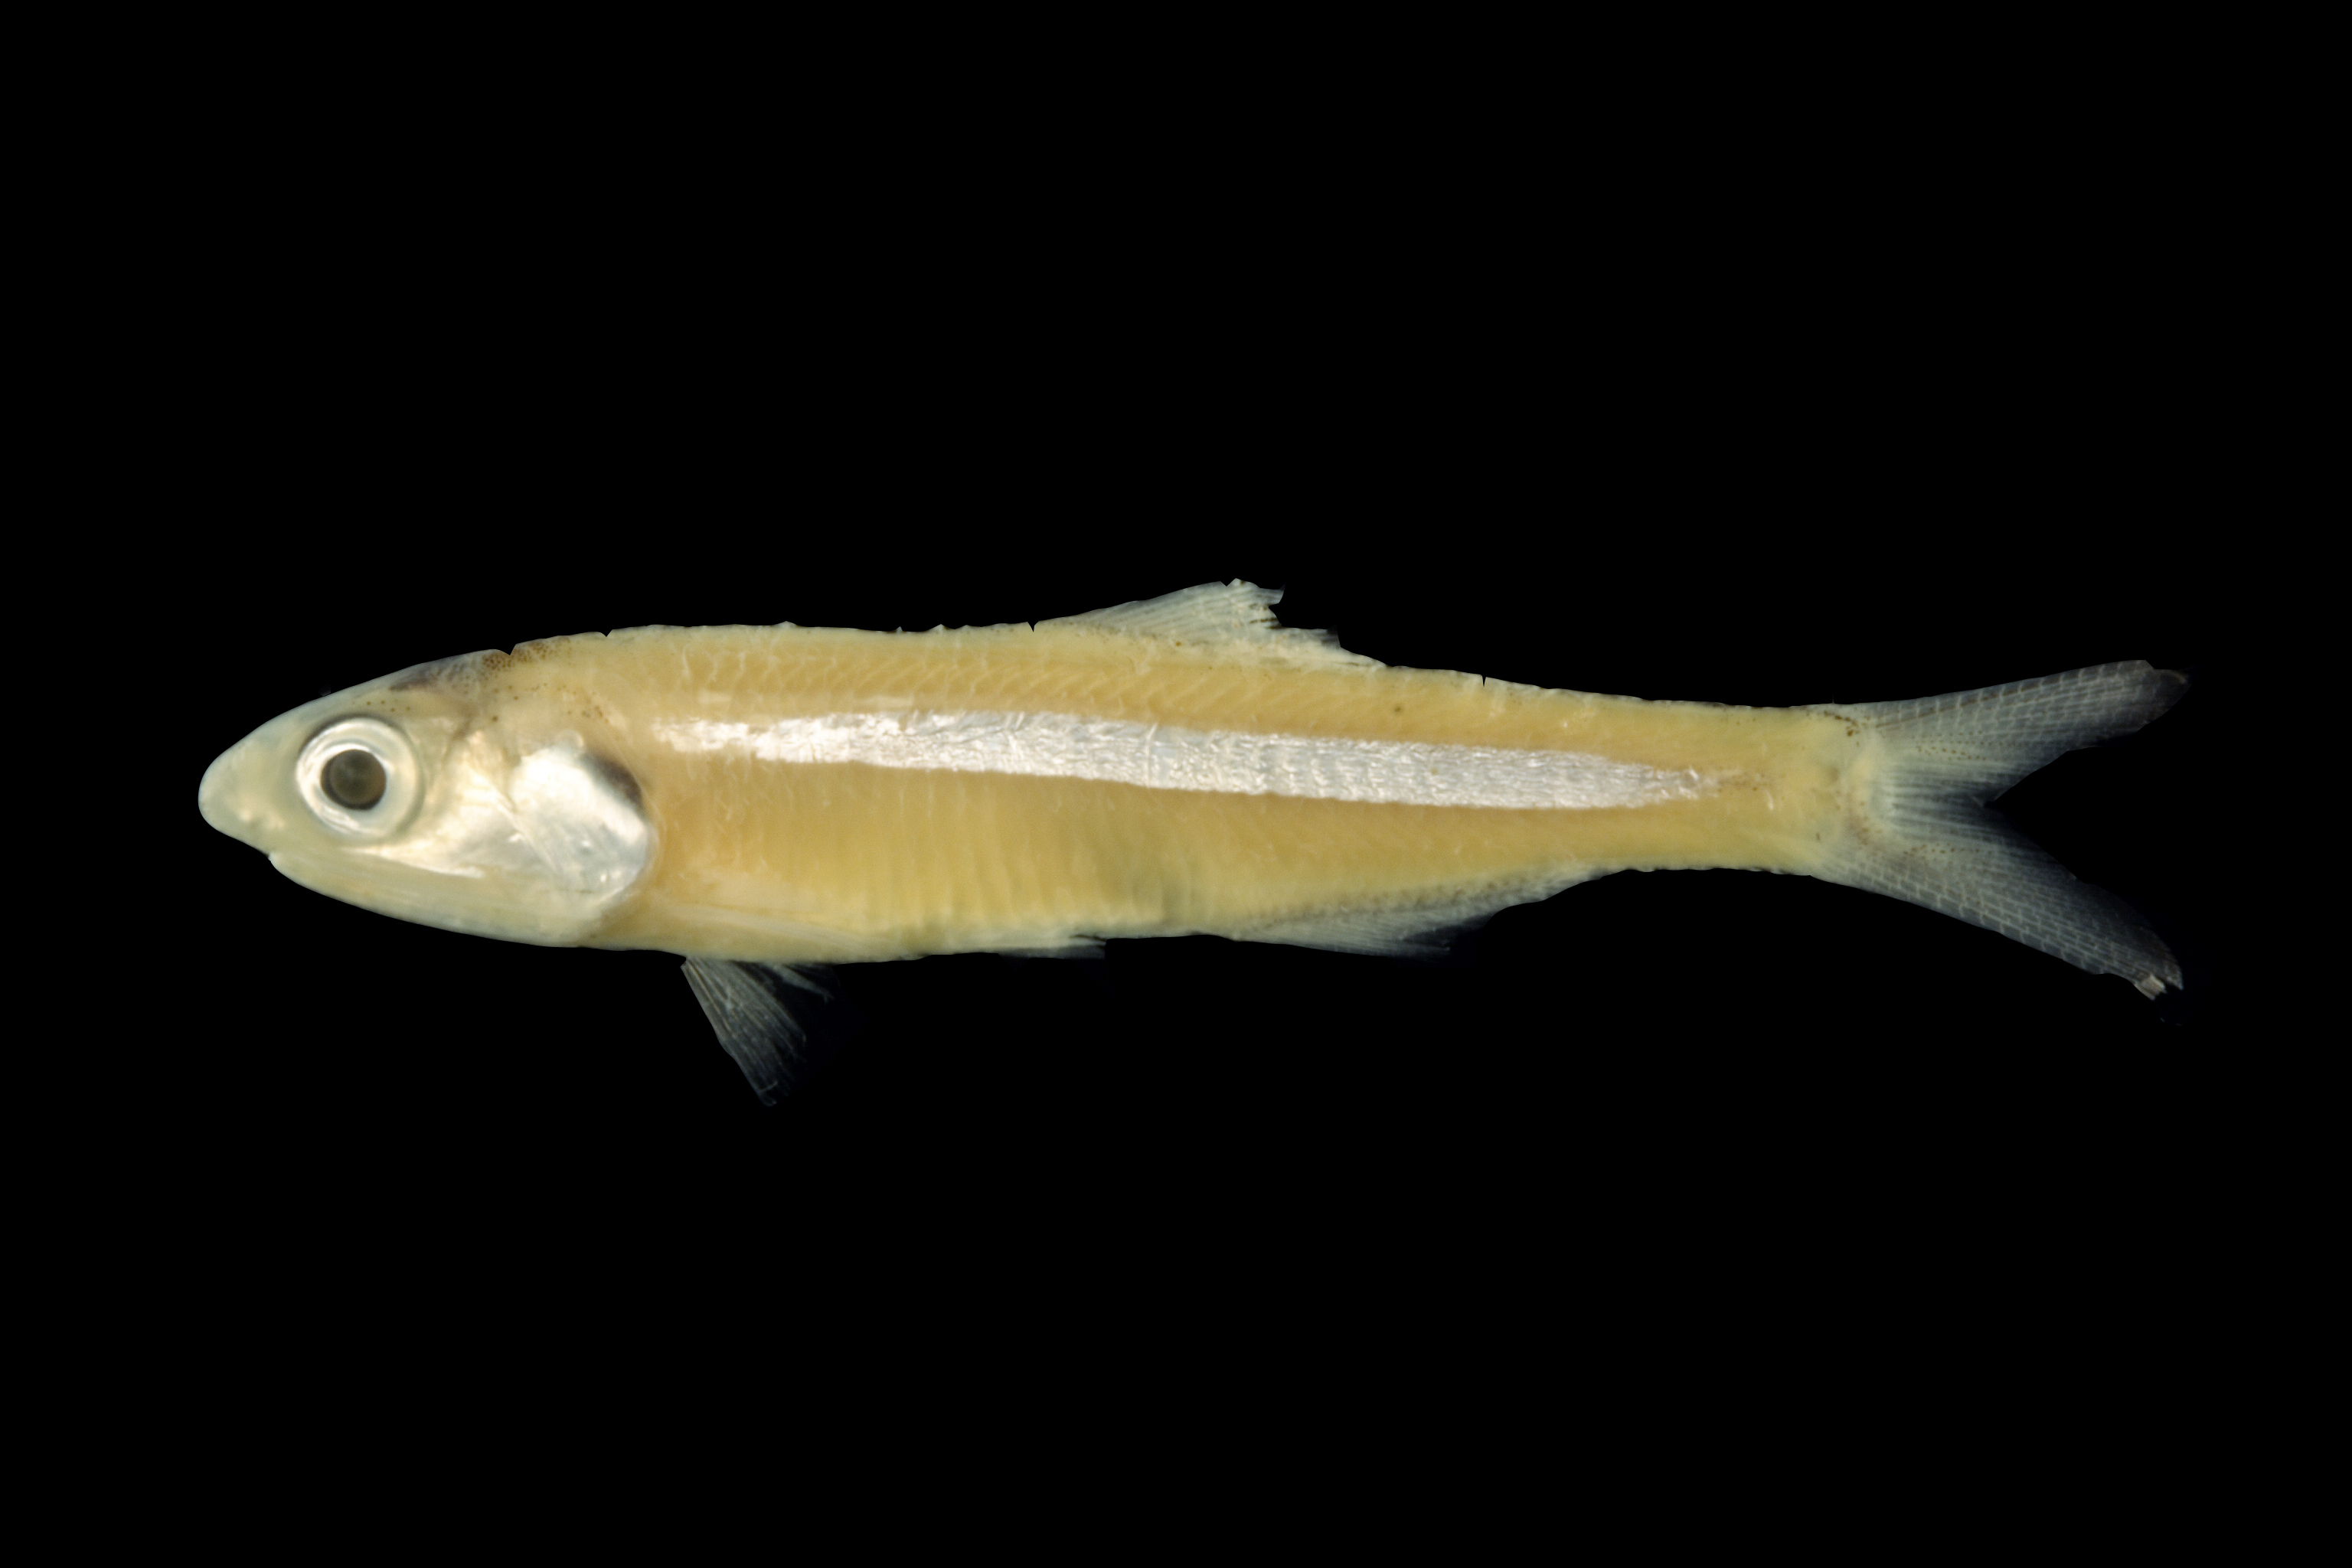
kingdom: Animalia
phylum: Chordata
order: Clupeiformes
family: Engraulidae
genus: Anchoa
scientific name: Anchoa hepsetus
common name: Striped anchovy
